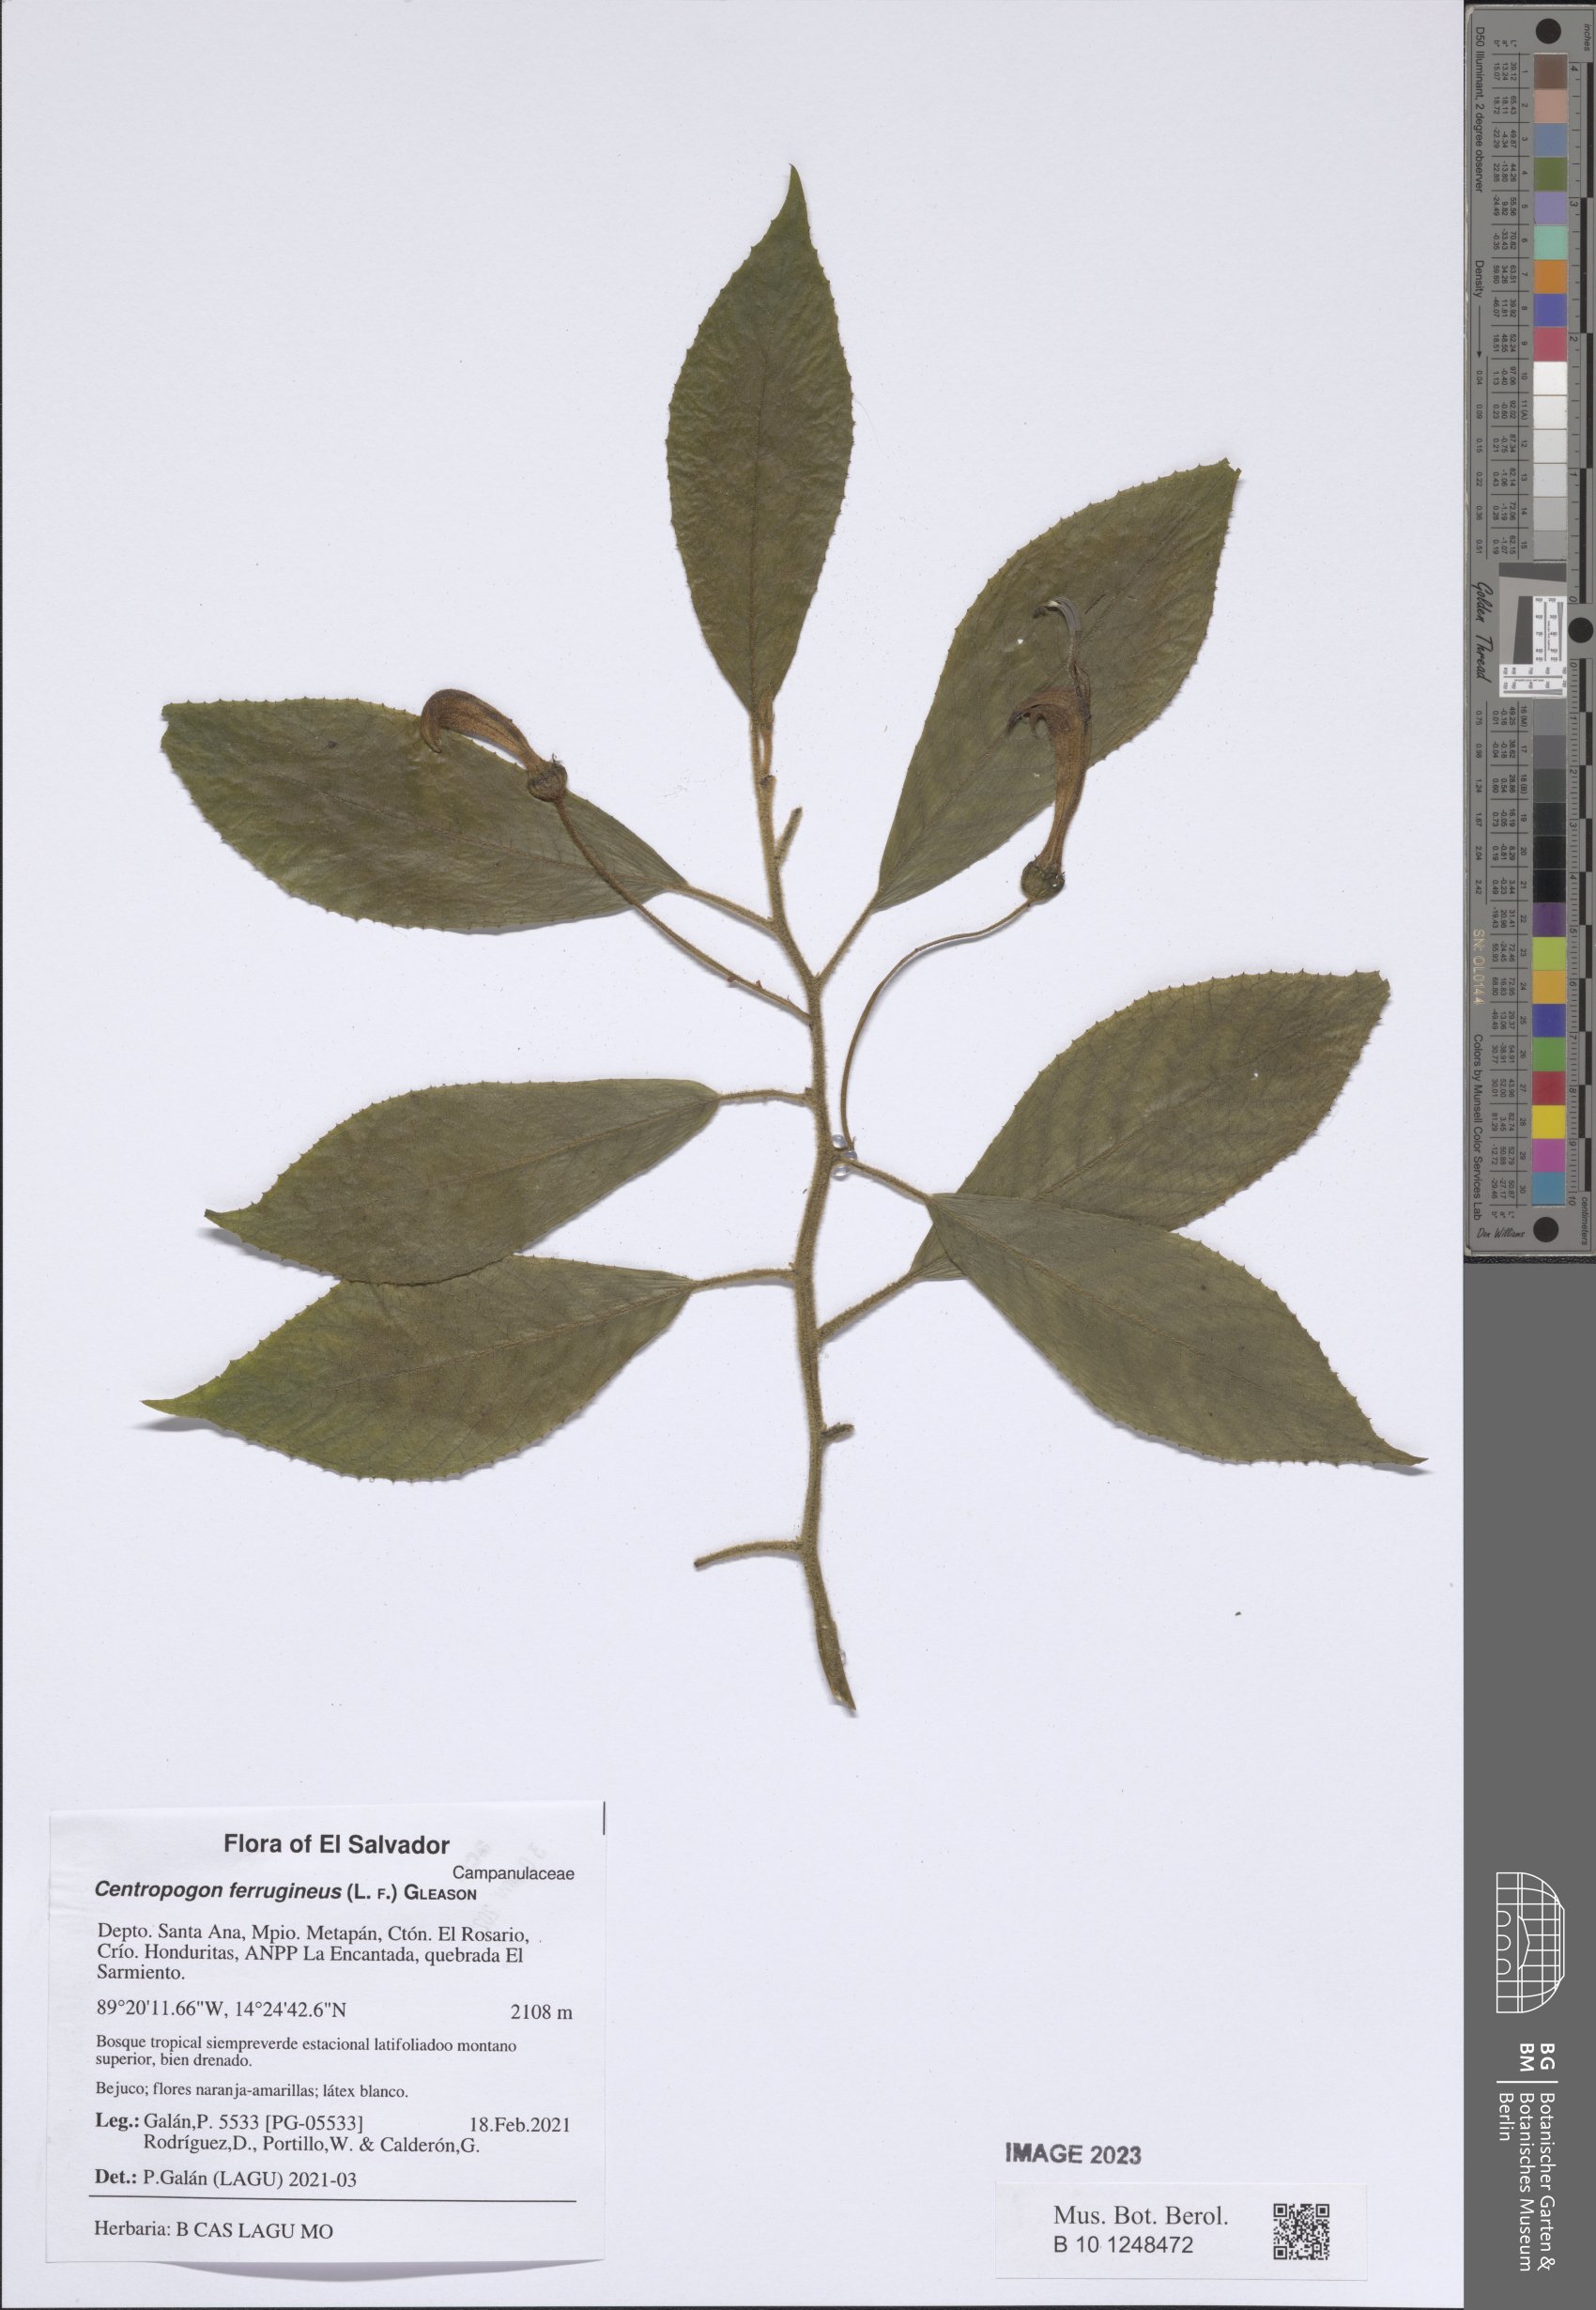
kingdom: Plantae
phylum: Tracheophyta
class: Magnoliopsida
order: Asterales
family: Campanulaceae
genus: Centropogon
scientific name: Centropogon ferrugineus
